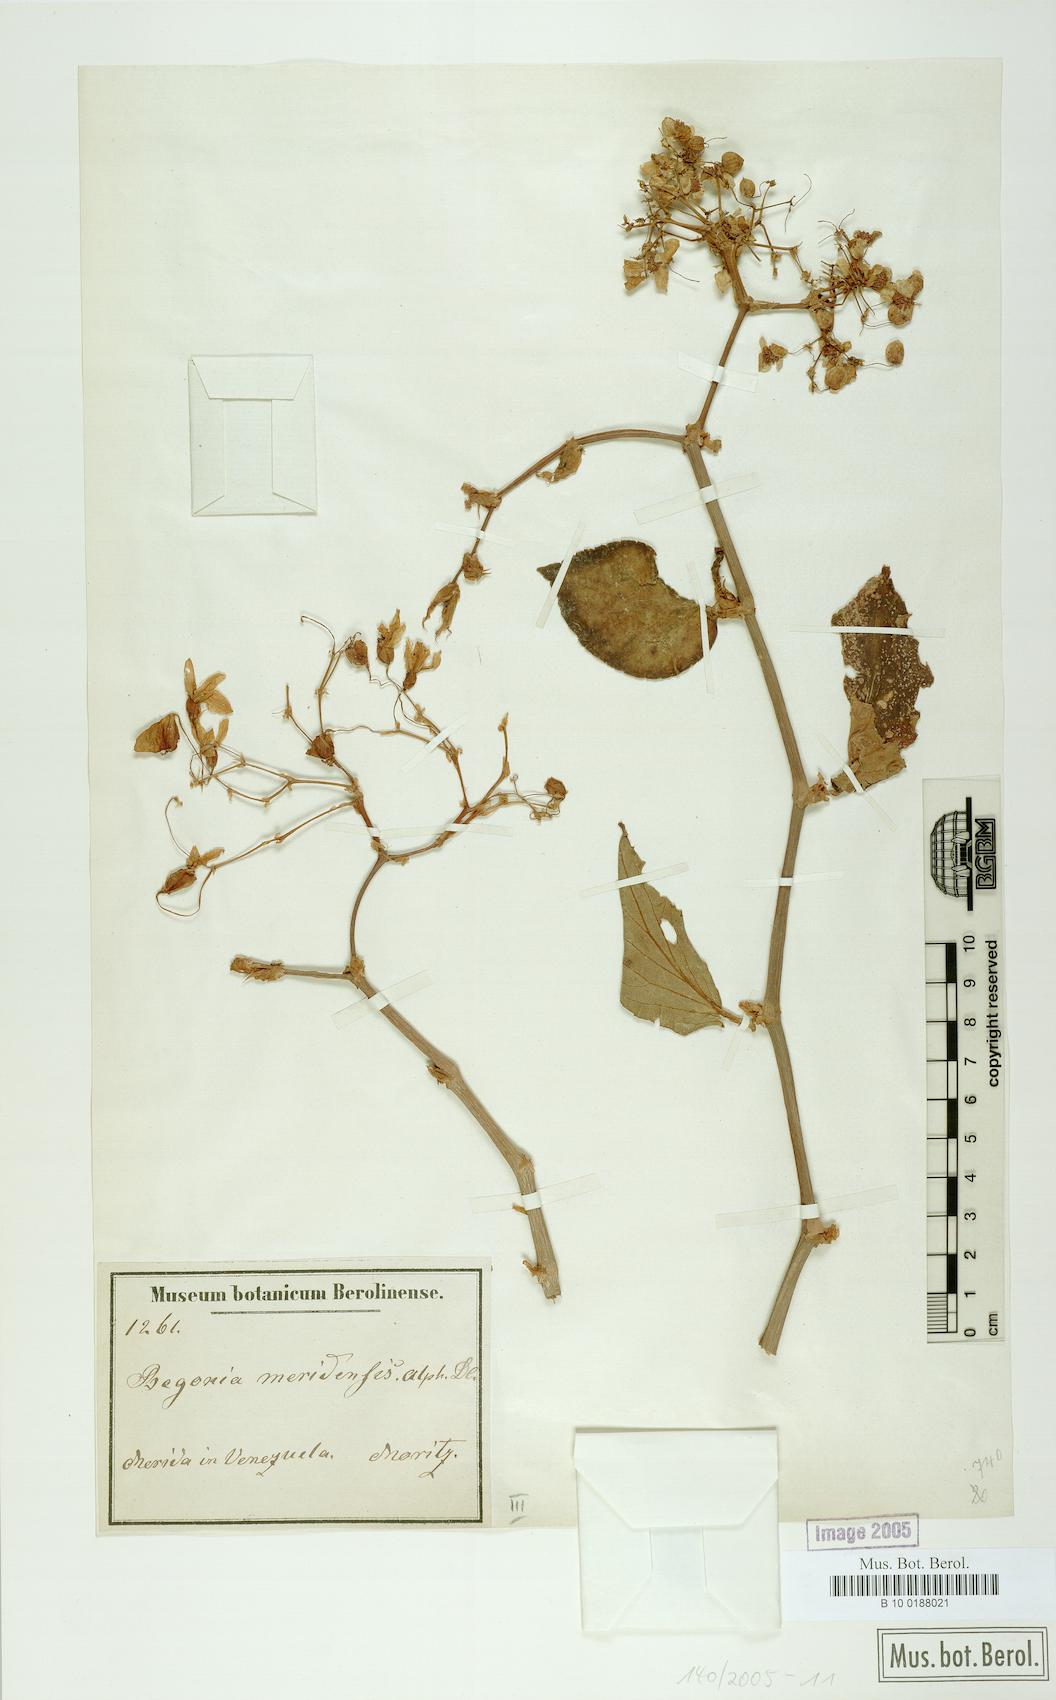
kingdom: Plantae
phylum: Tracheophyta
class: Magnoliopsida
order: Cucurbitales
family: Begoniaceae
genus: Begonia
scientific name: Begonia meridensis
